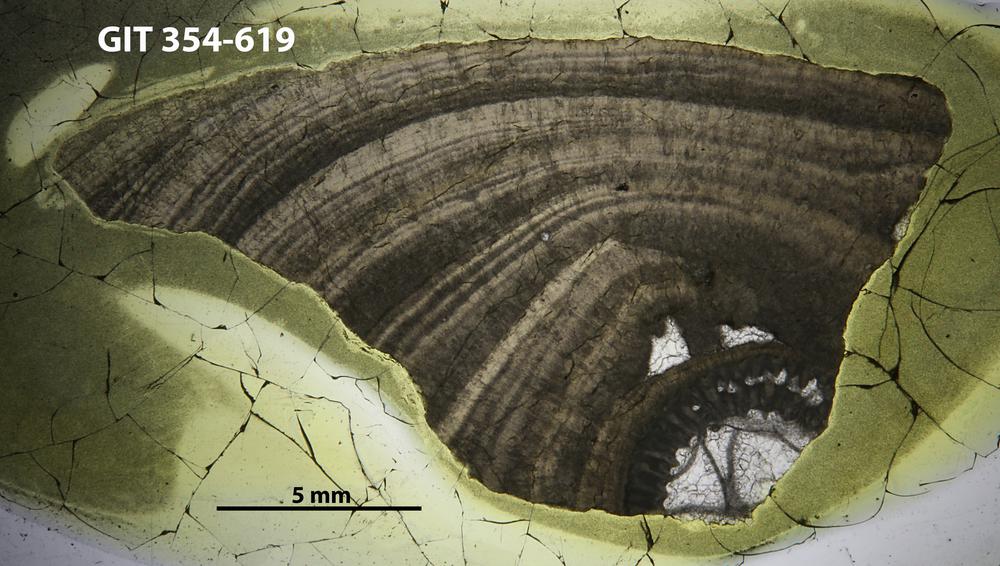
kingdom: Animalia
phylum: Porifera
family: Densastromatidae
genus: Densastroma
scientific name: Densastroma Actinostroma pexisum
